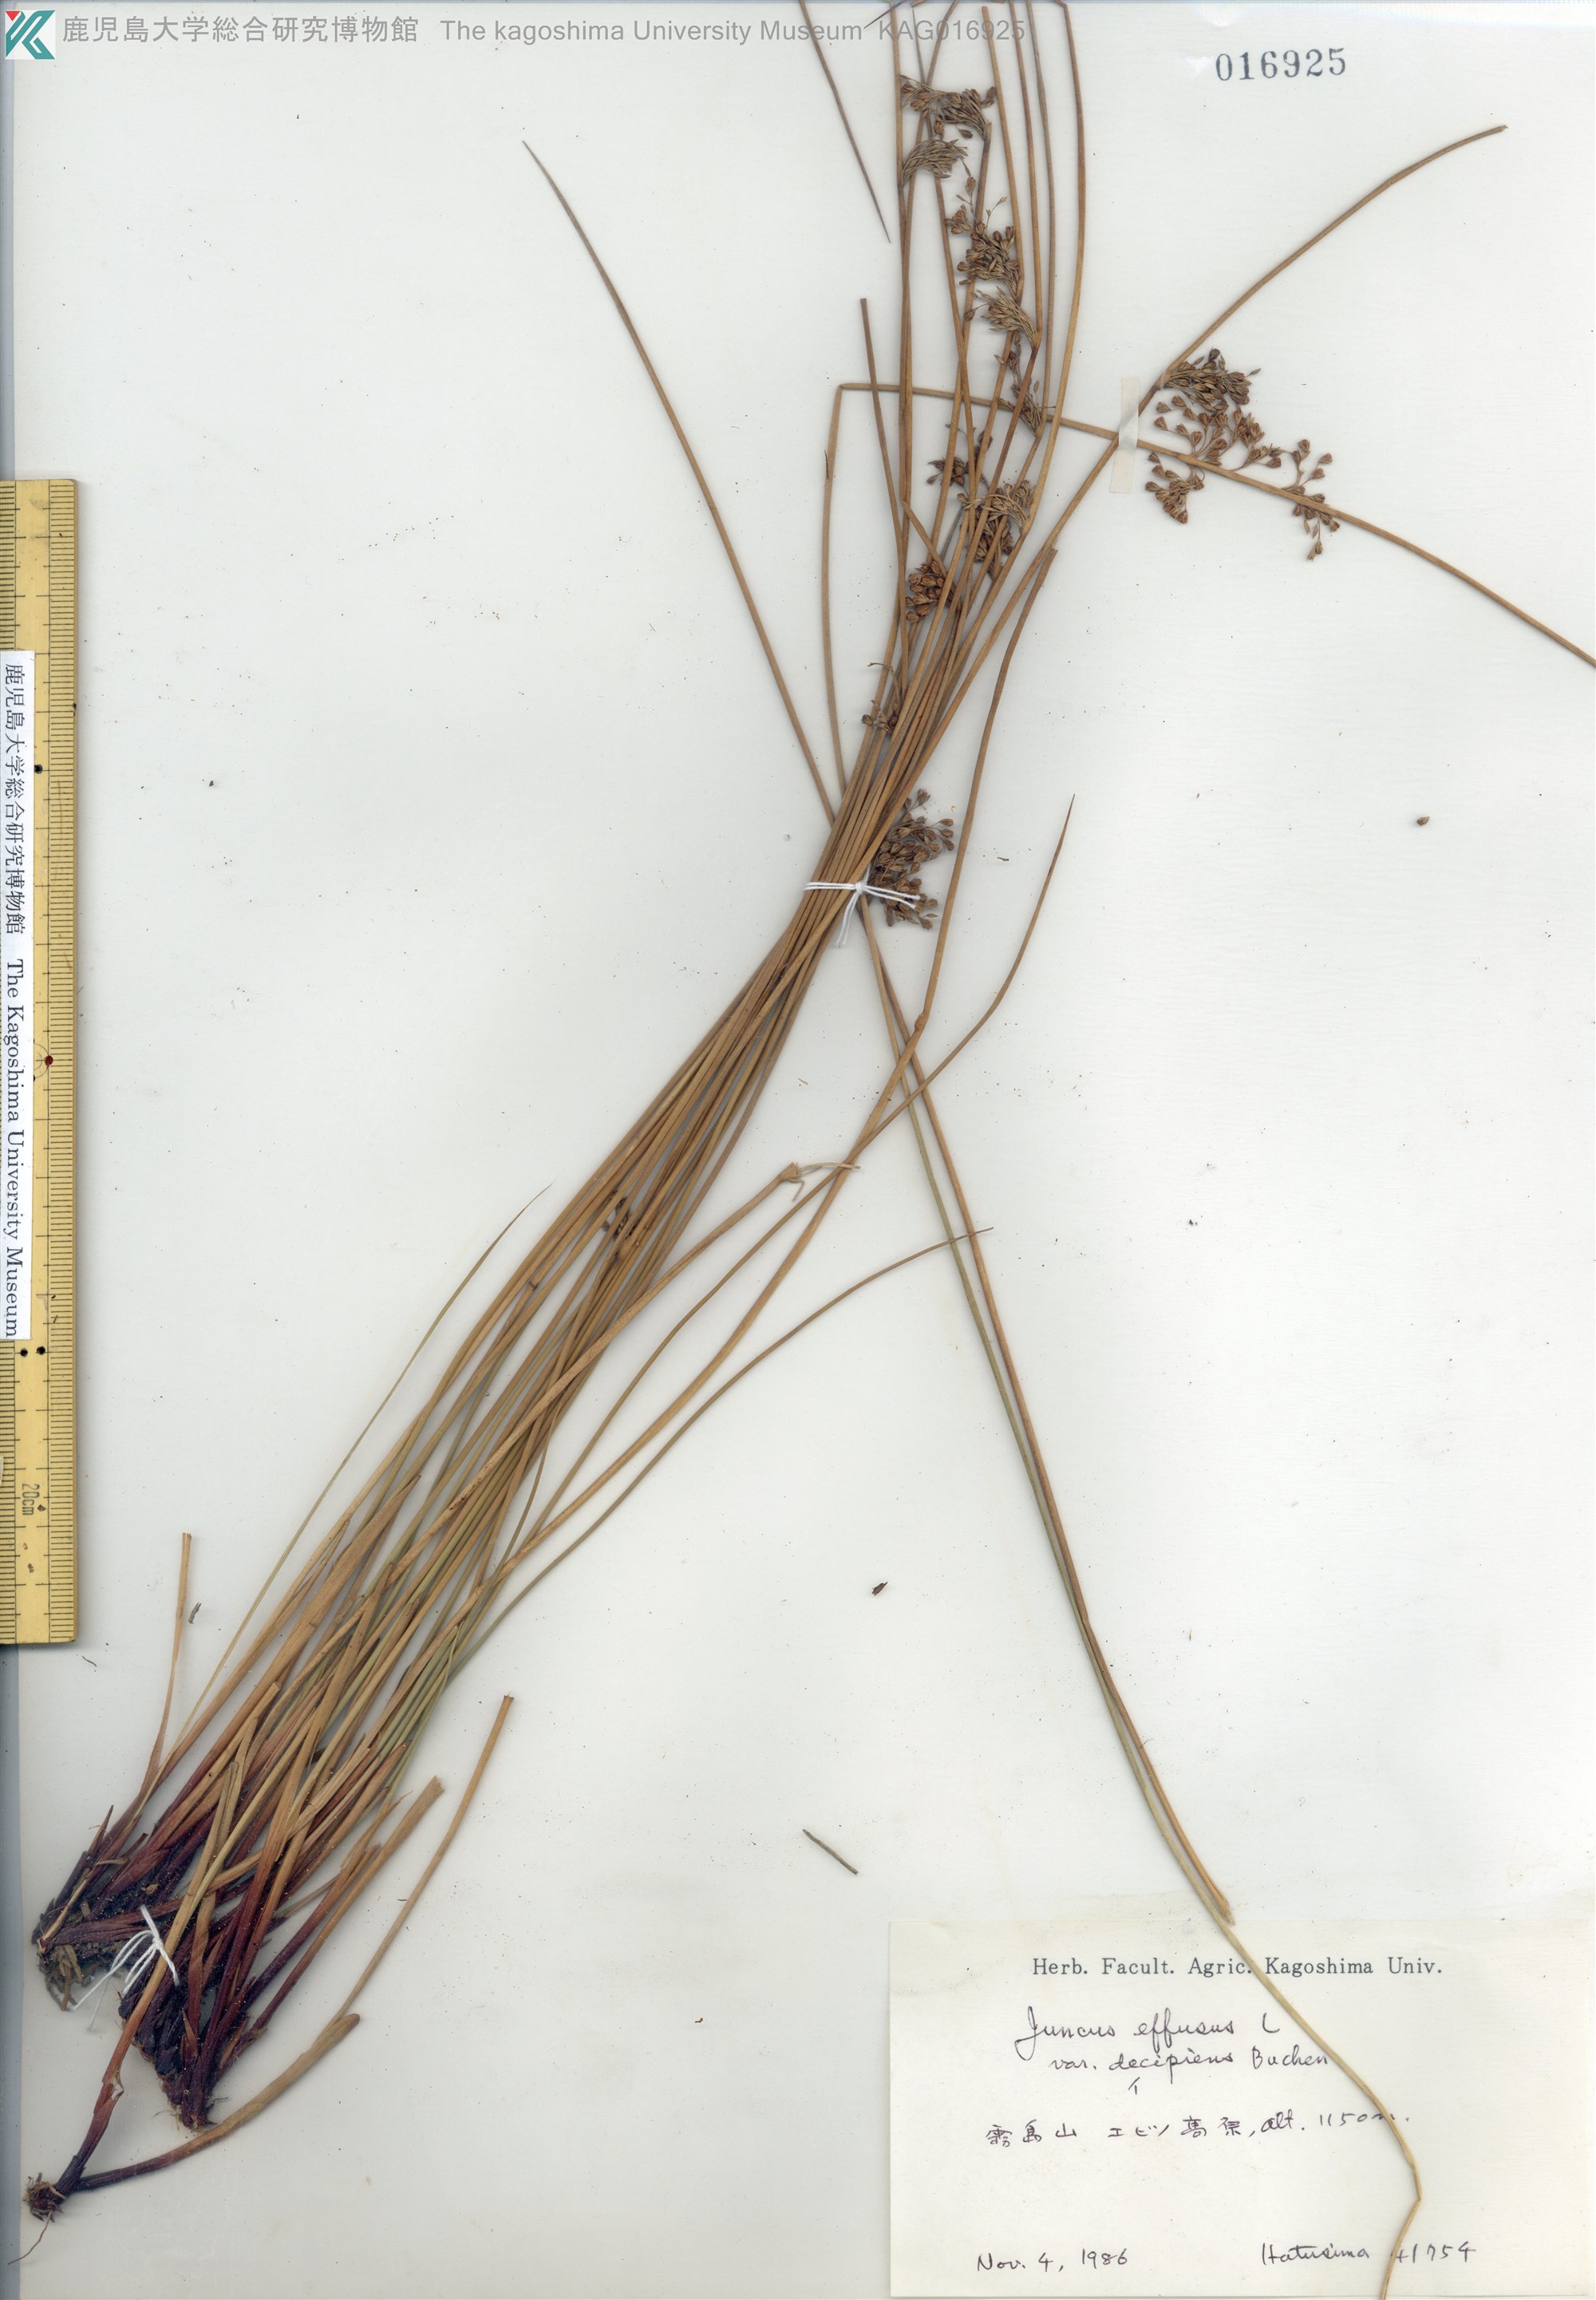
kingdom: Plantae
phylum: Tracheophyta
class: Liliopsida
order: Poales
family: Juncaceae
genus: Juncus
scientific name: Juncus decipiens
